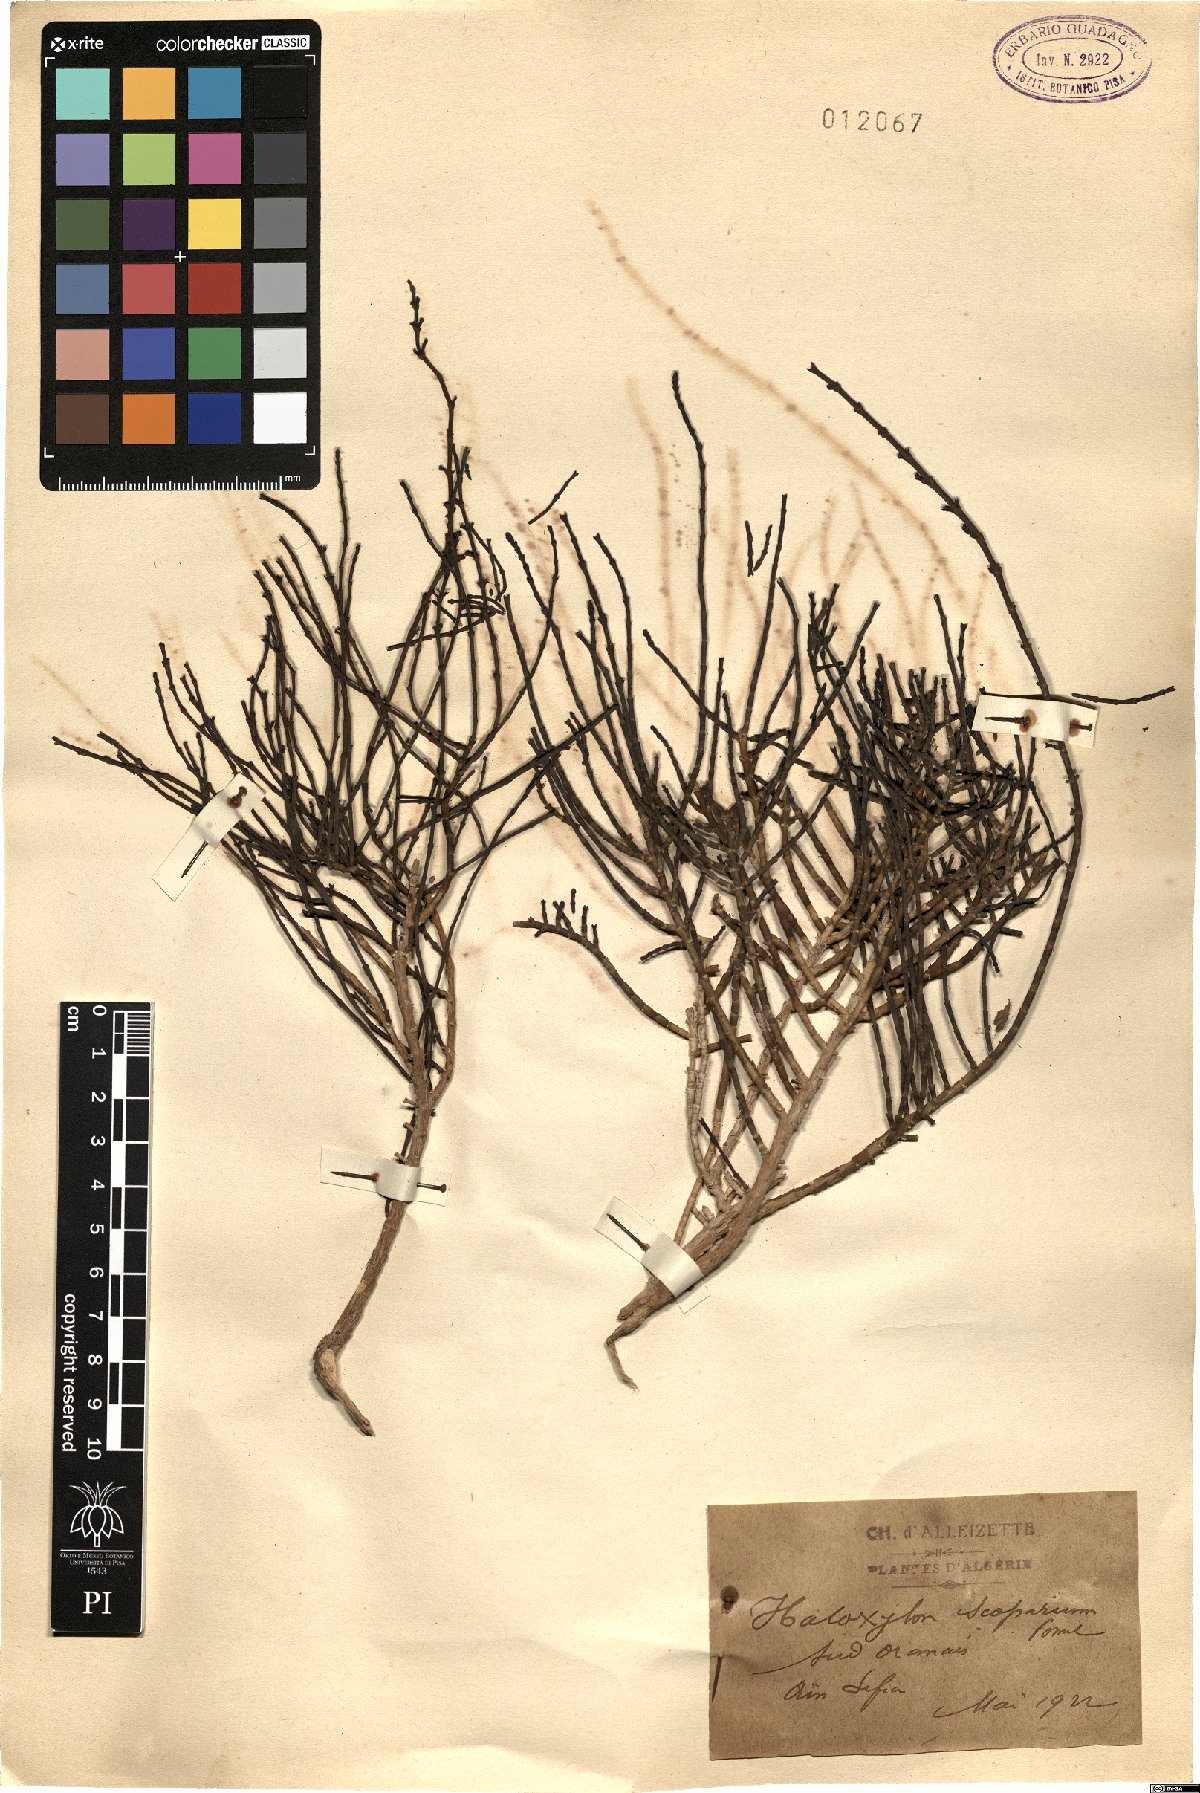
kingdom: Plantae
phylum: Tracheophyta
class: Magnoliopsida
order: Caryophyllales
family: Amaranthaceae
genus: Haloxylon
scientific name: Haloxylon scoparium
